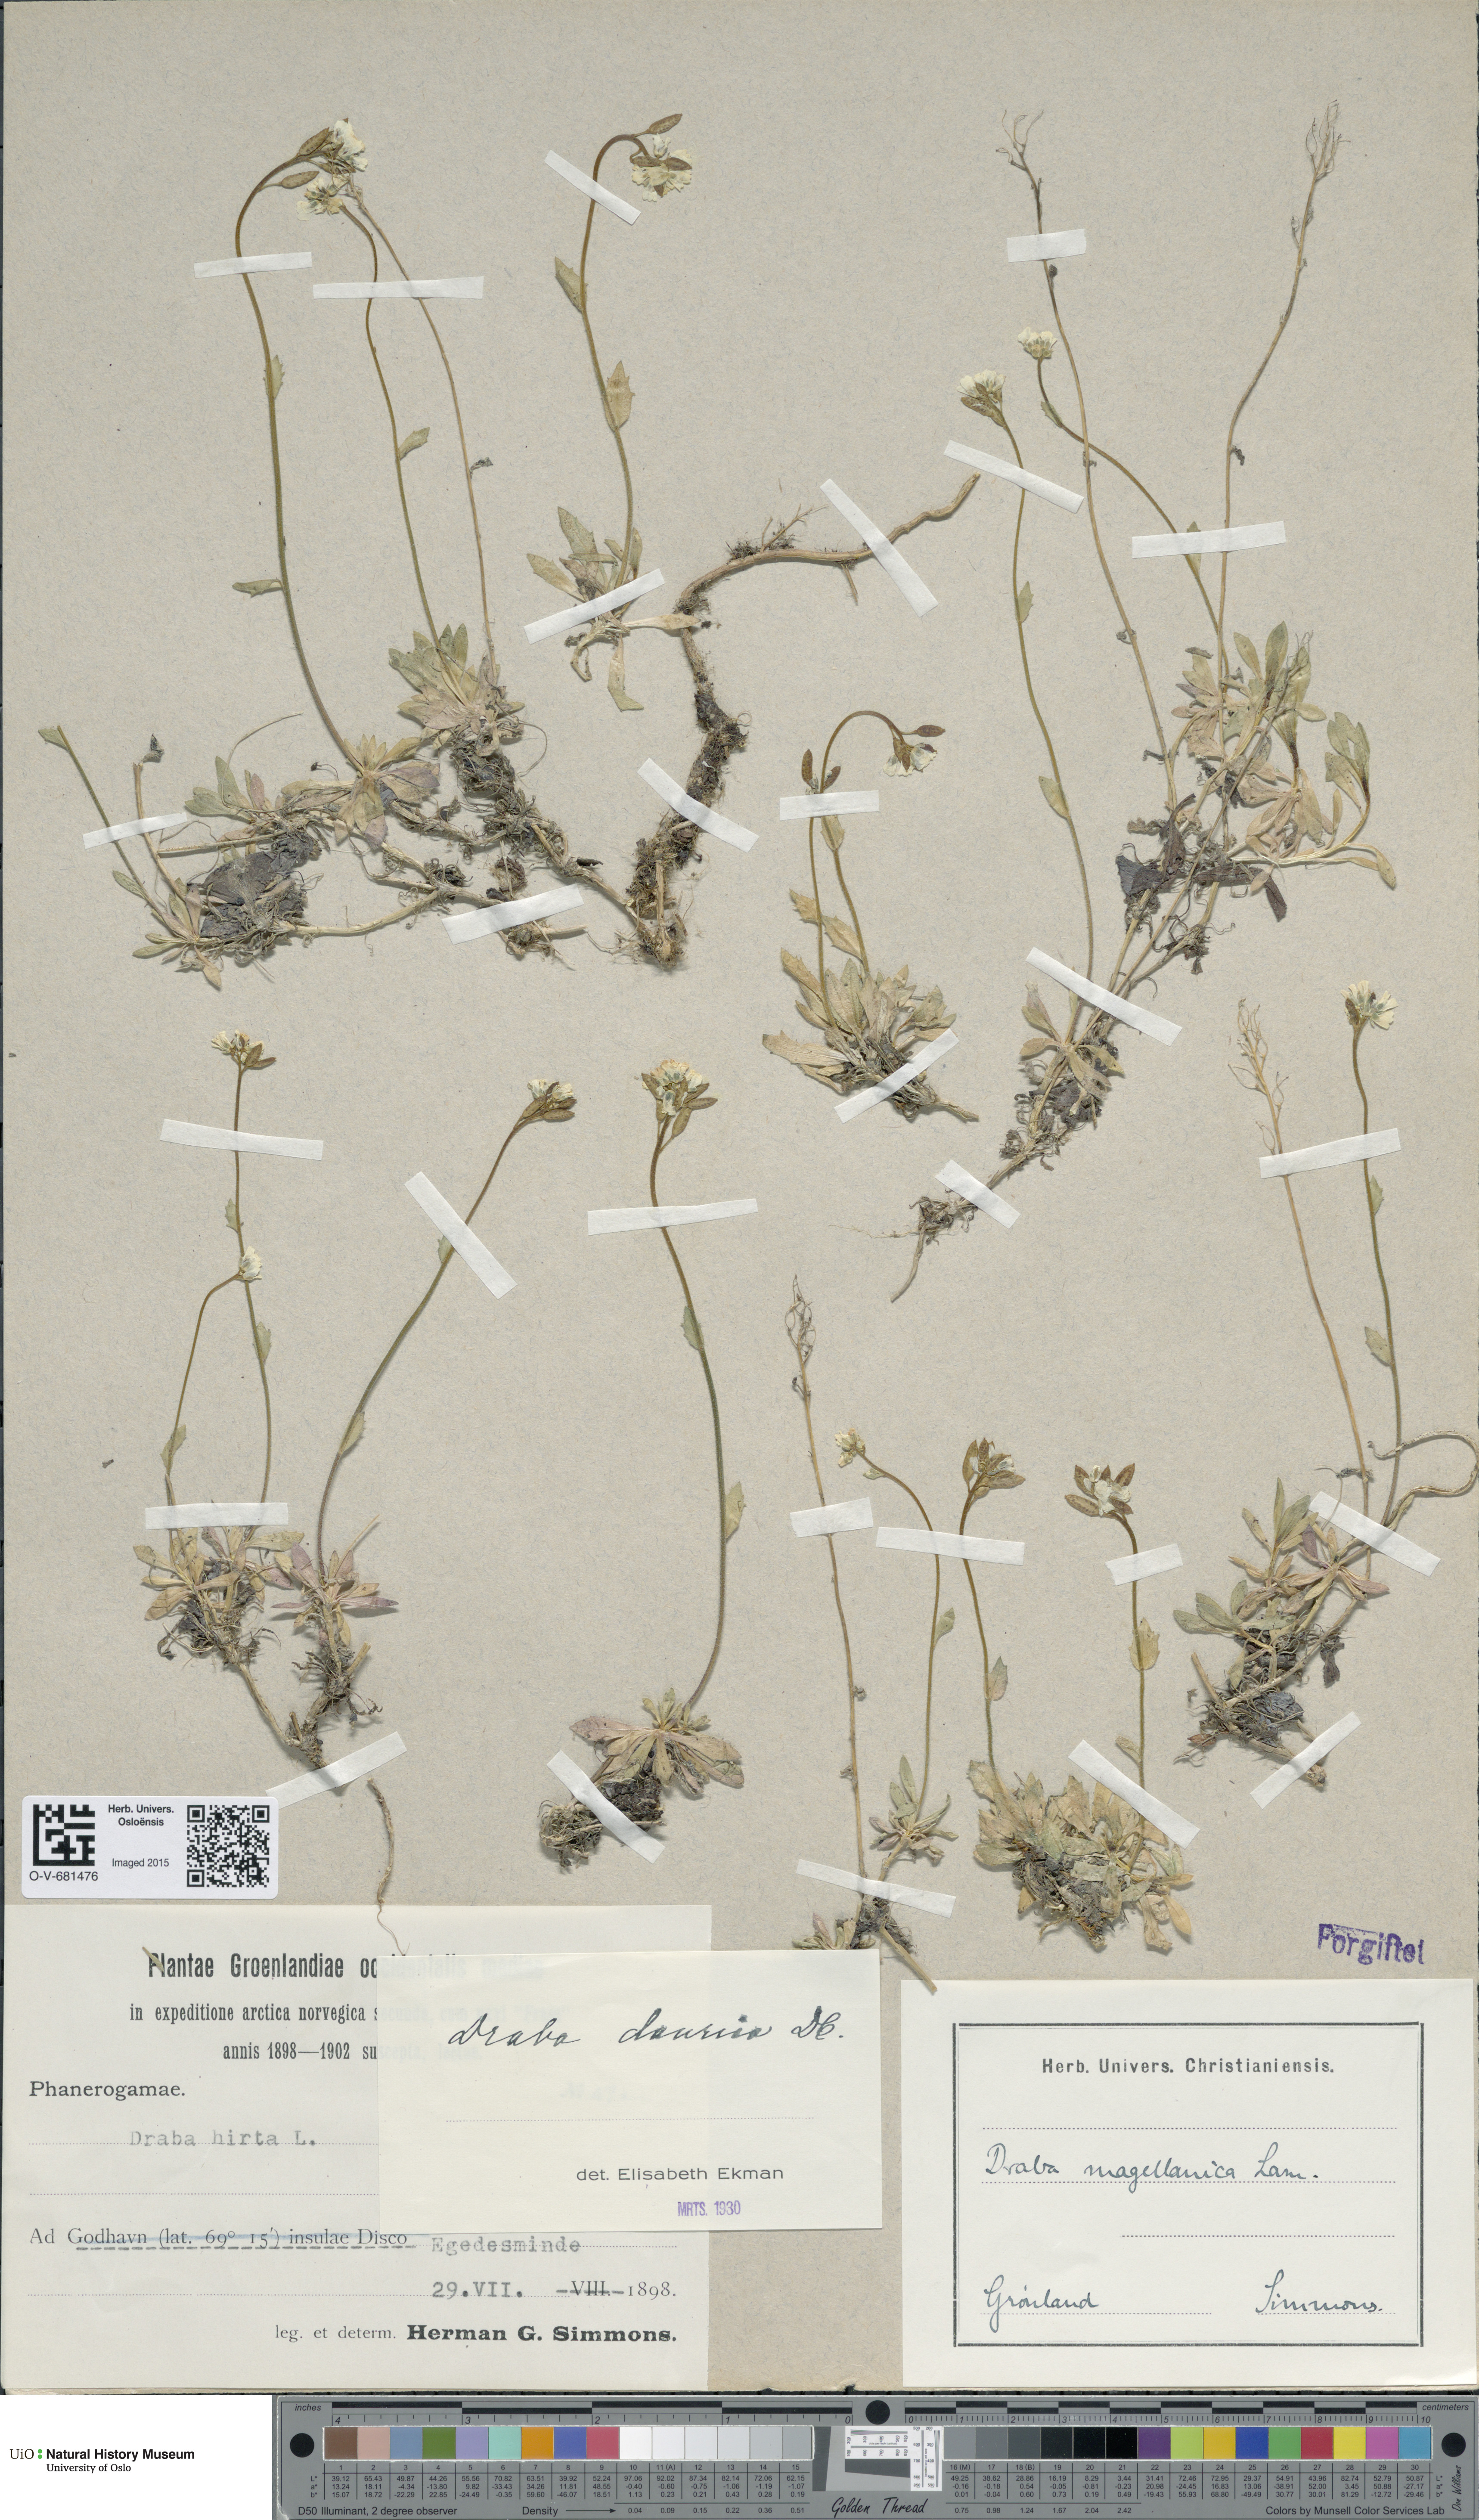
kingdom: Plantae
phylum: Tracheophyta
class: Magnoliopsida
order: Brassicales
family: Brassicaceae
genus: Draba
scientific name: Draba glabella
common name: Glaucous draba
